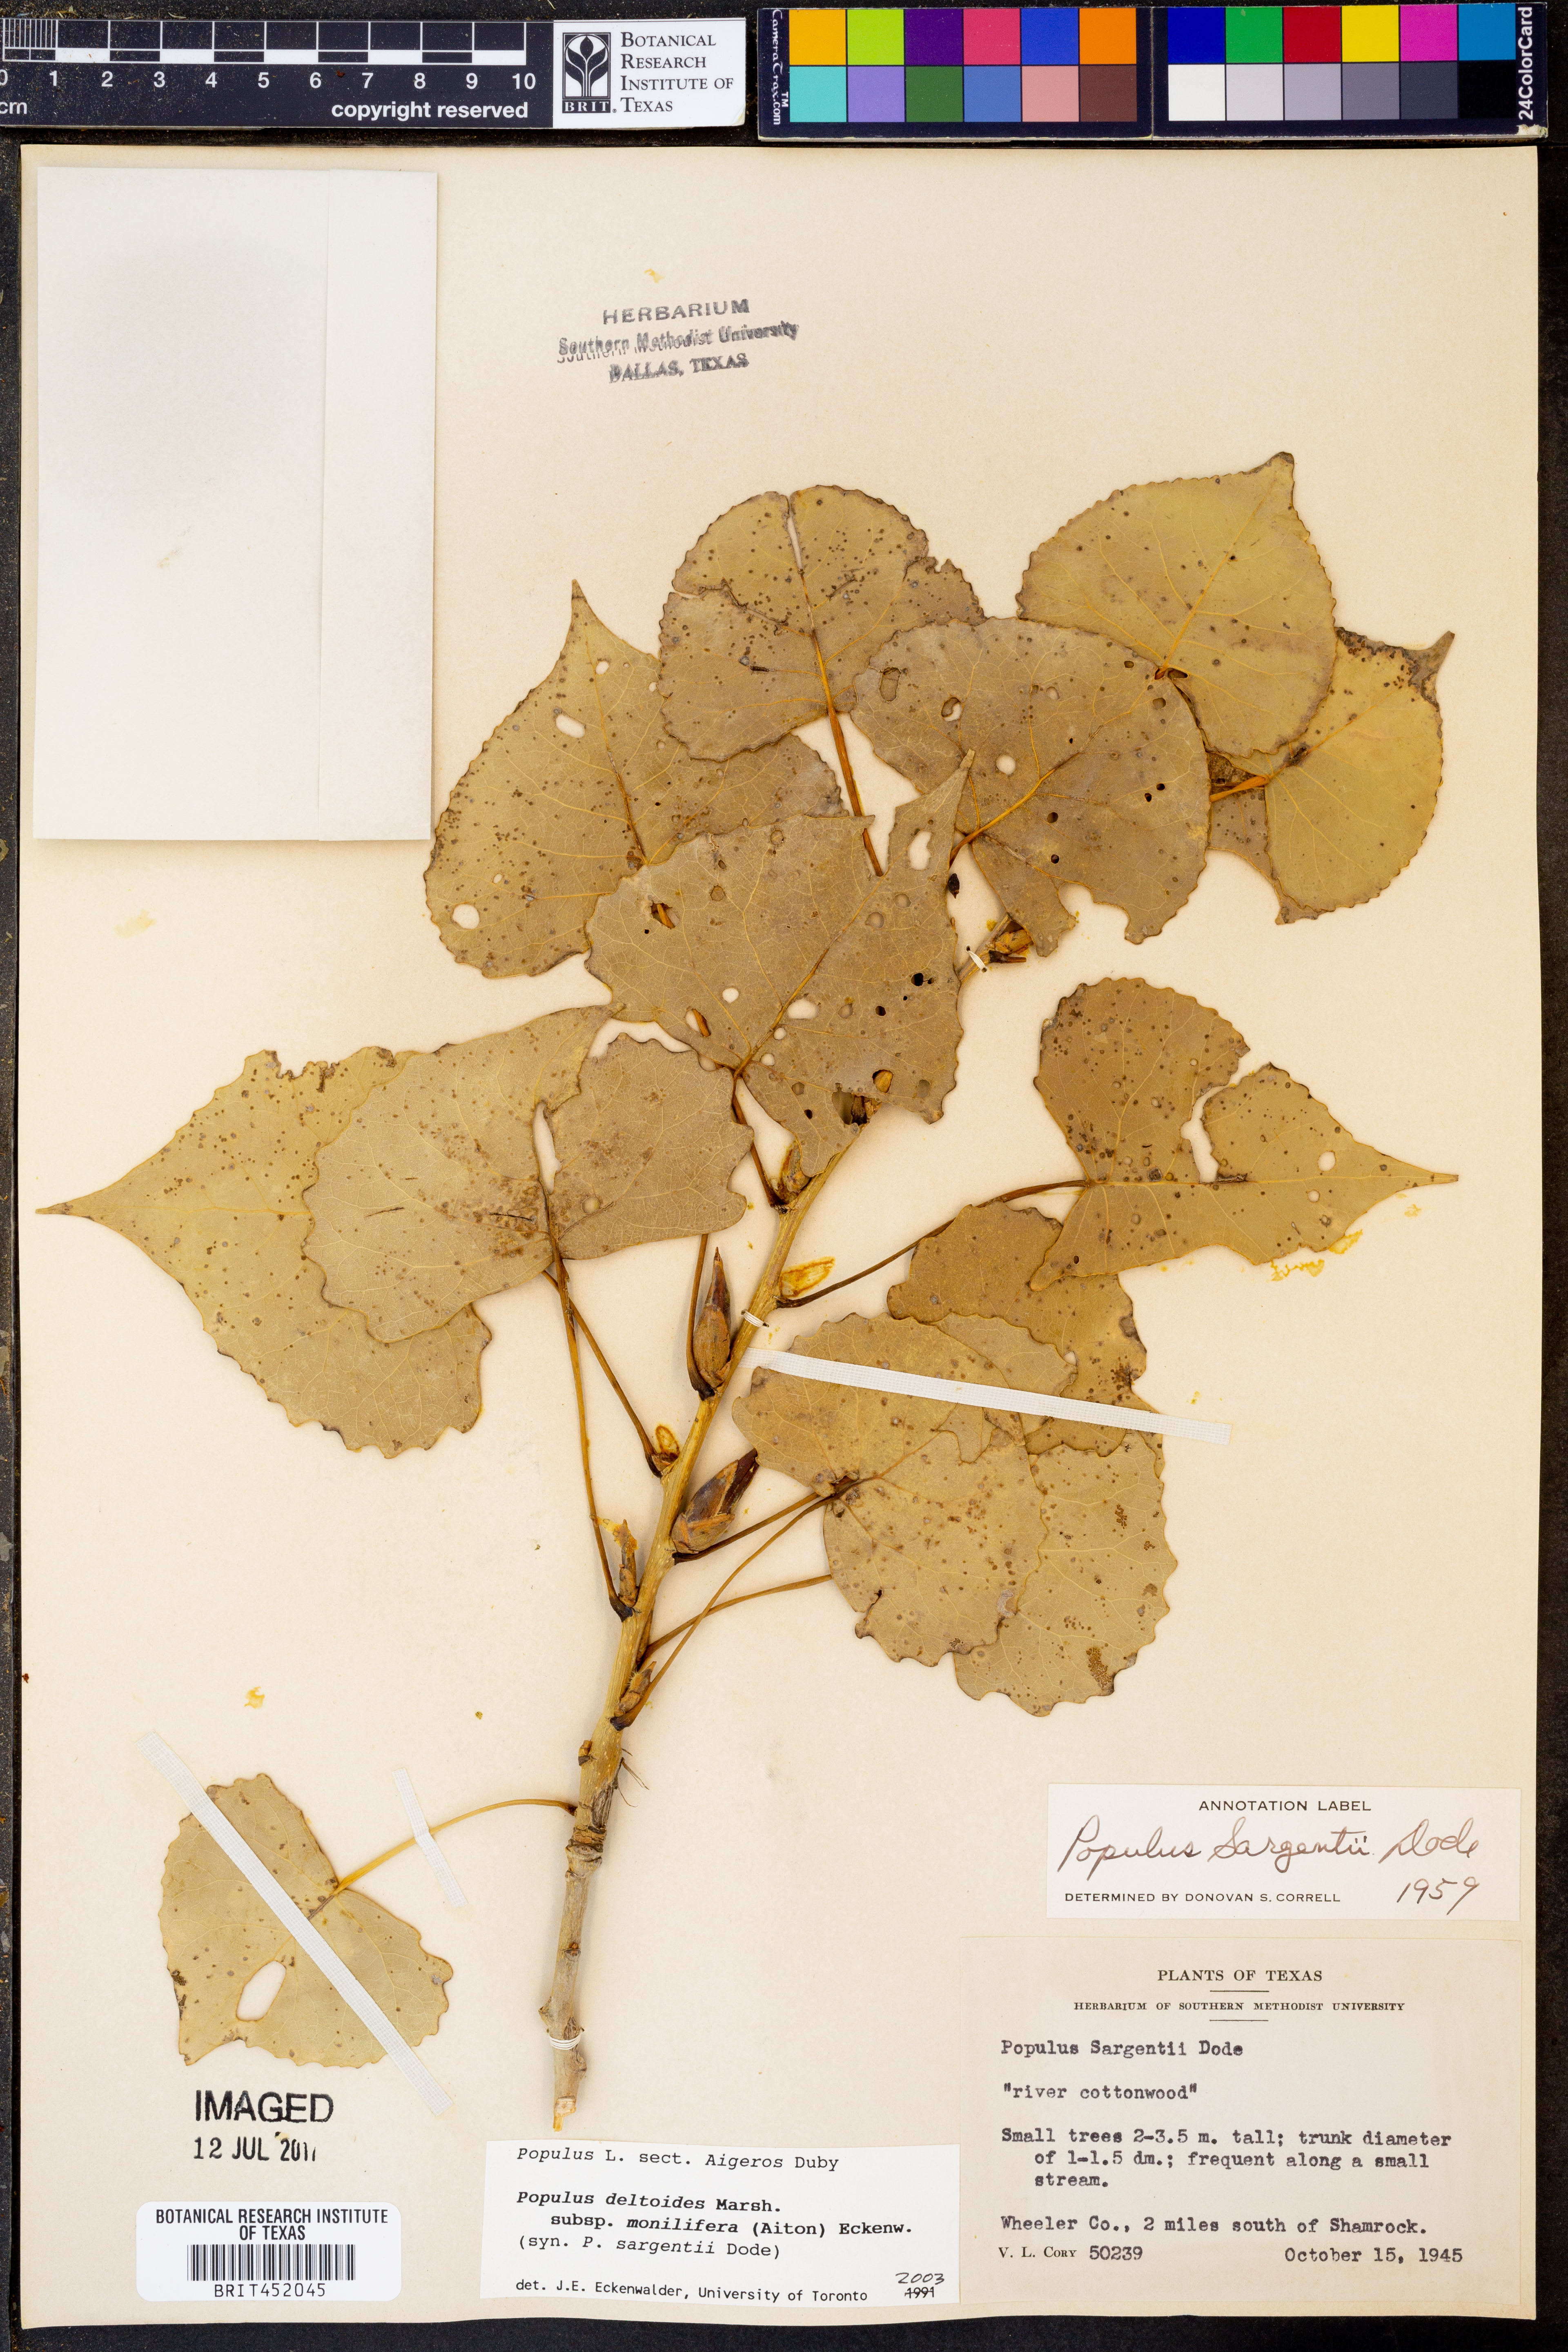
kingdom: Plantae
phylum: Tracheophyta
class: Magnoliopsida
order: Malpighiales
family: Salicaceae
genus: Populus
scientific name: Populus deltoides
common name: Eastern cottonwood
